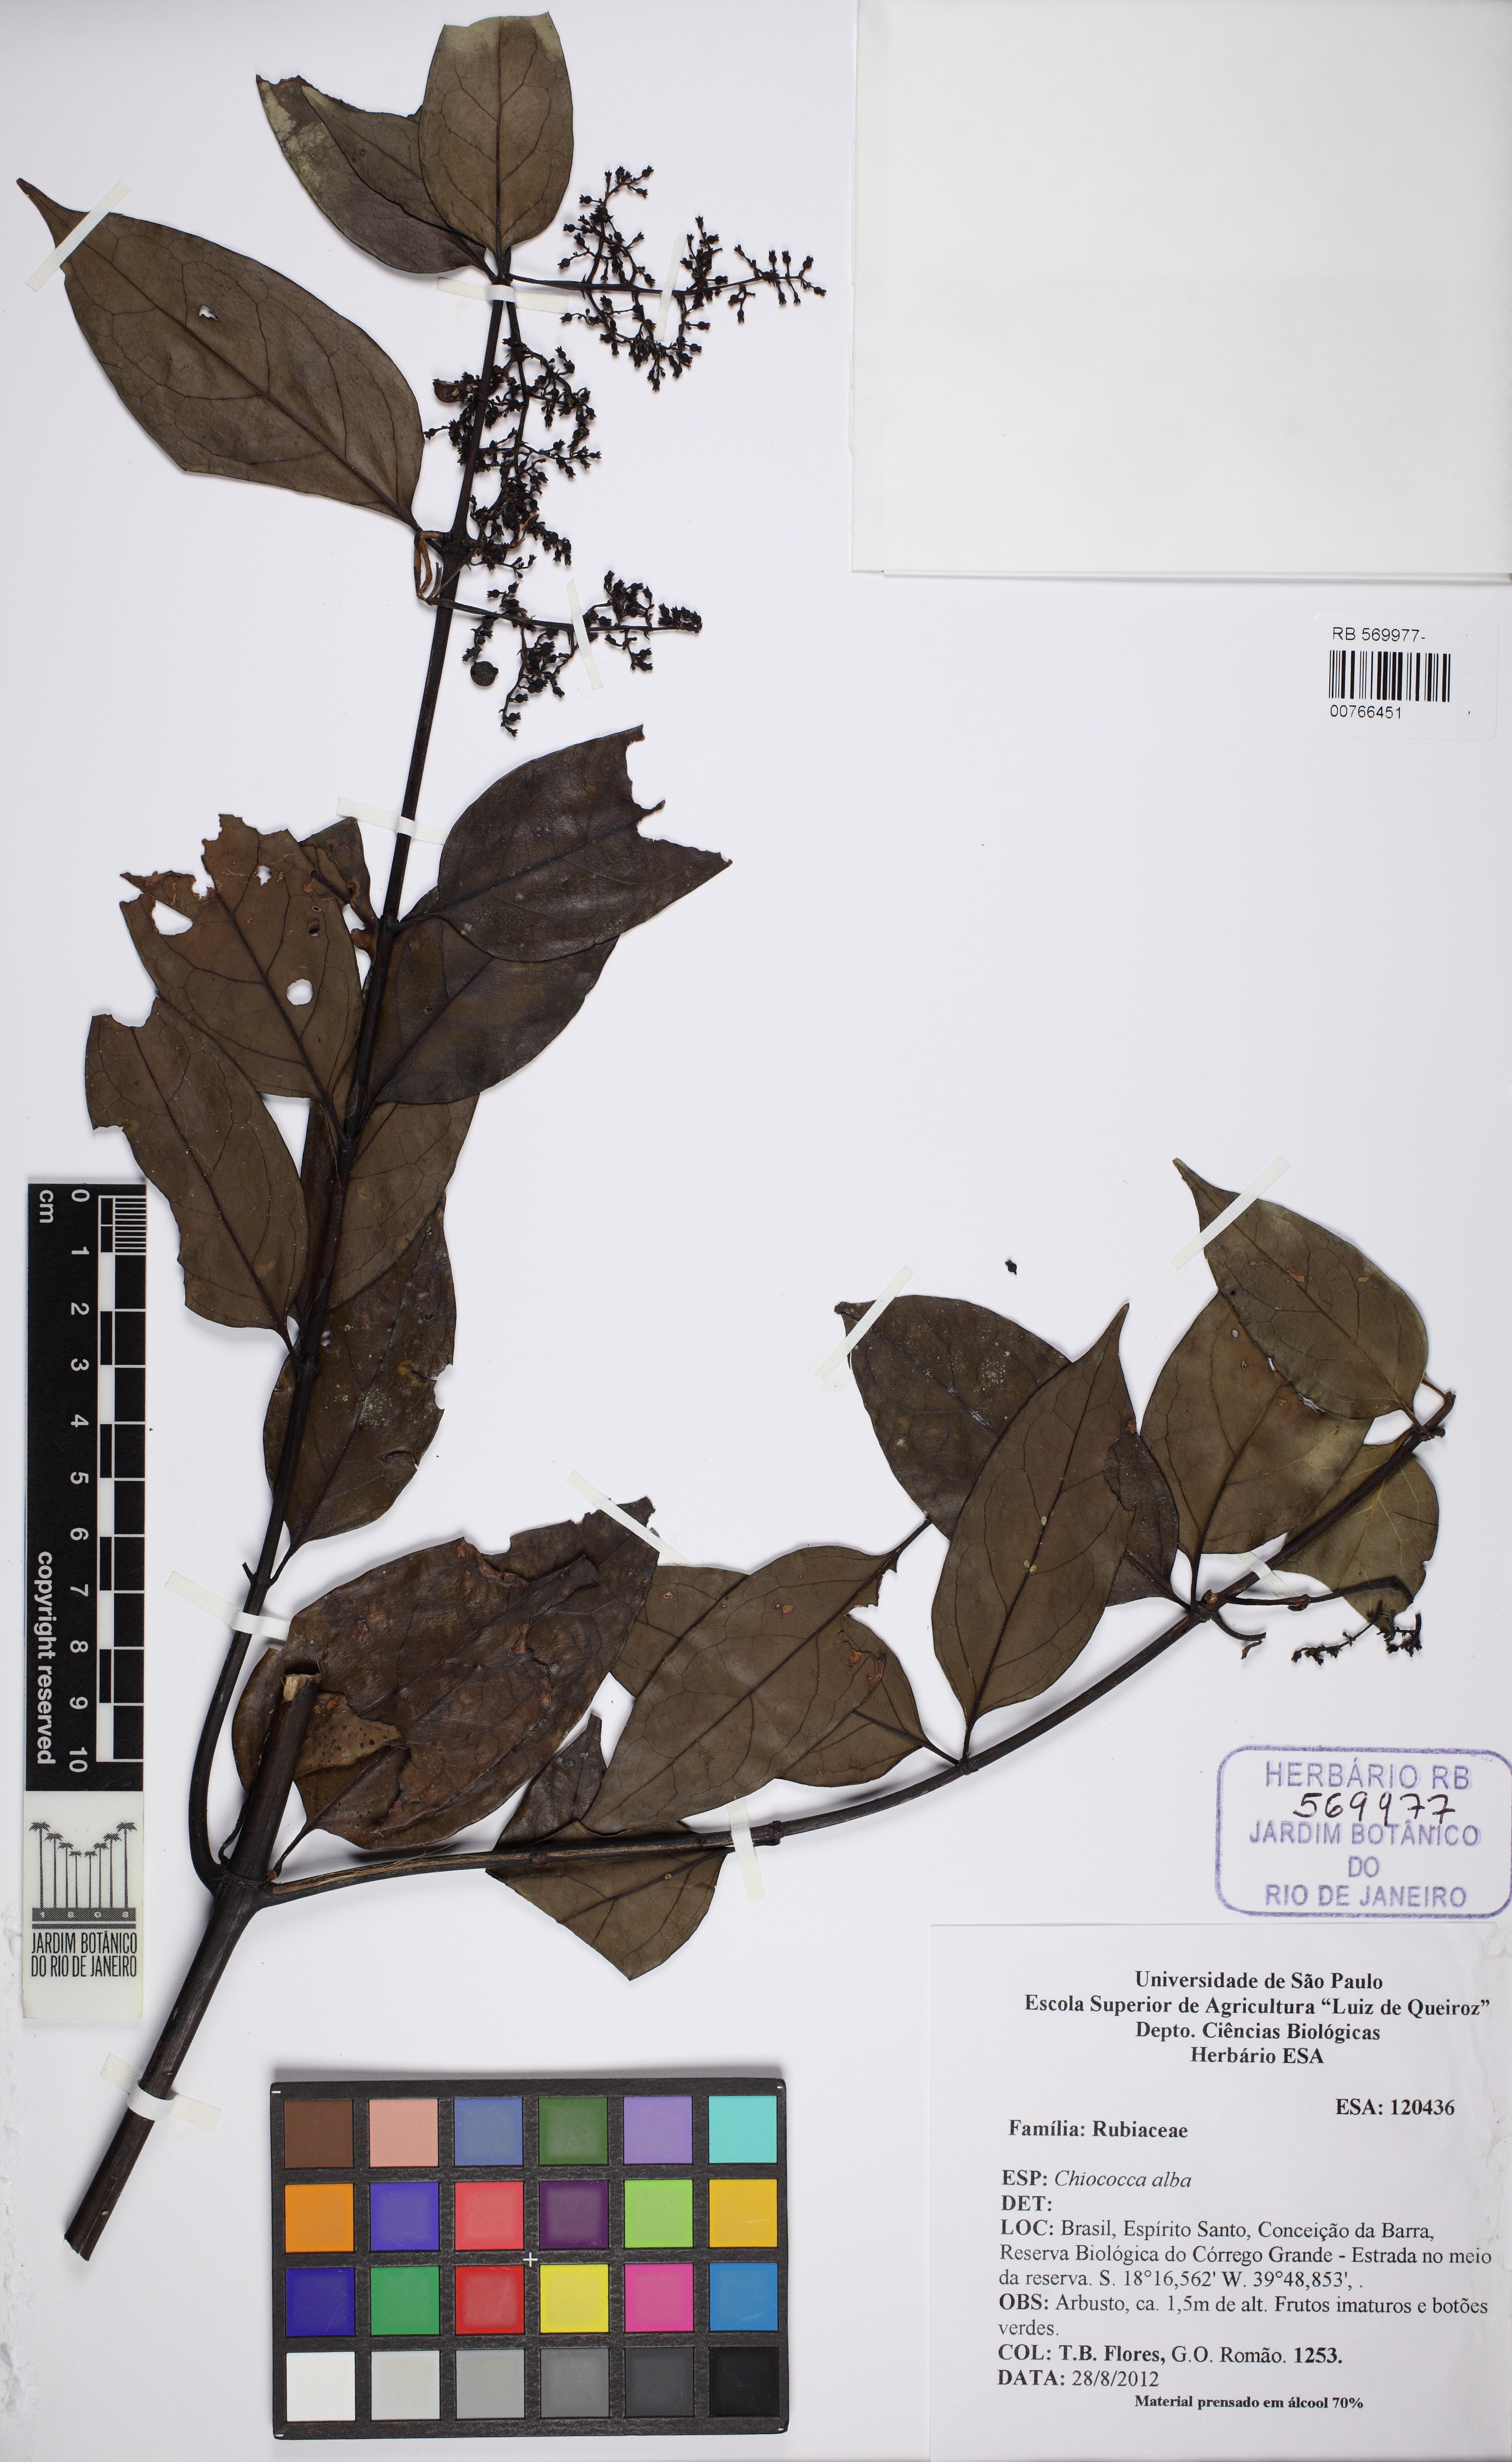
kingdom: Plantae
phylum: Tracheophyta
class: Magnoliopsida
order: Gentianales
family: Rubiaceae
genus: Chiococca
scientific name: Chiococca alba
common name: Snowberry
